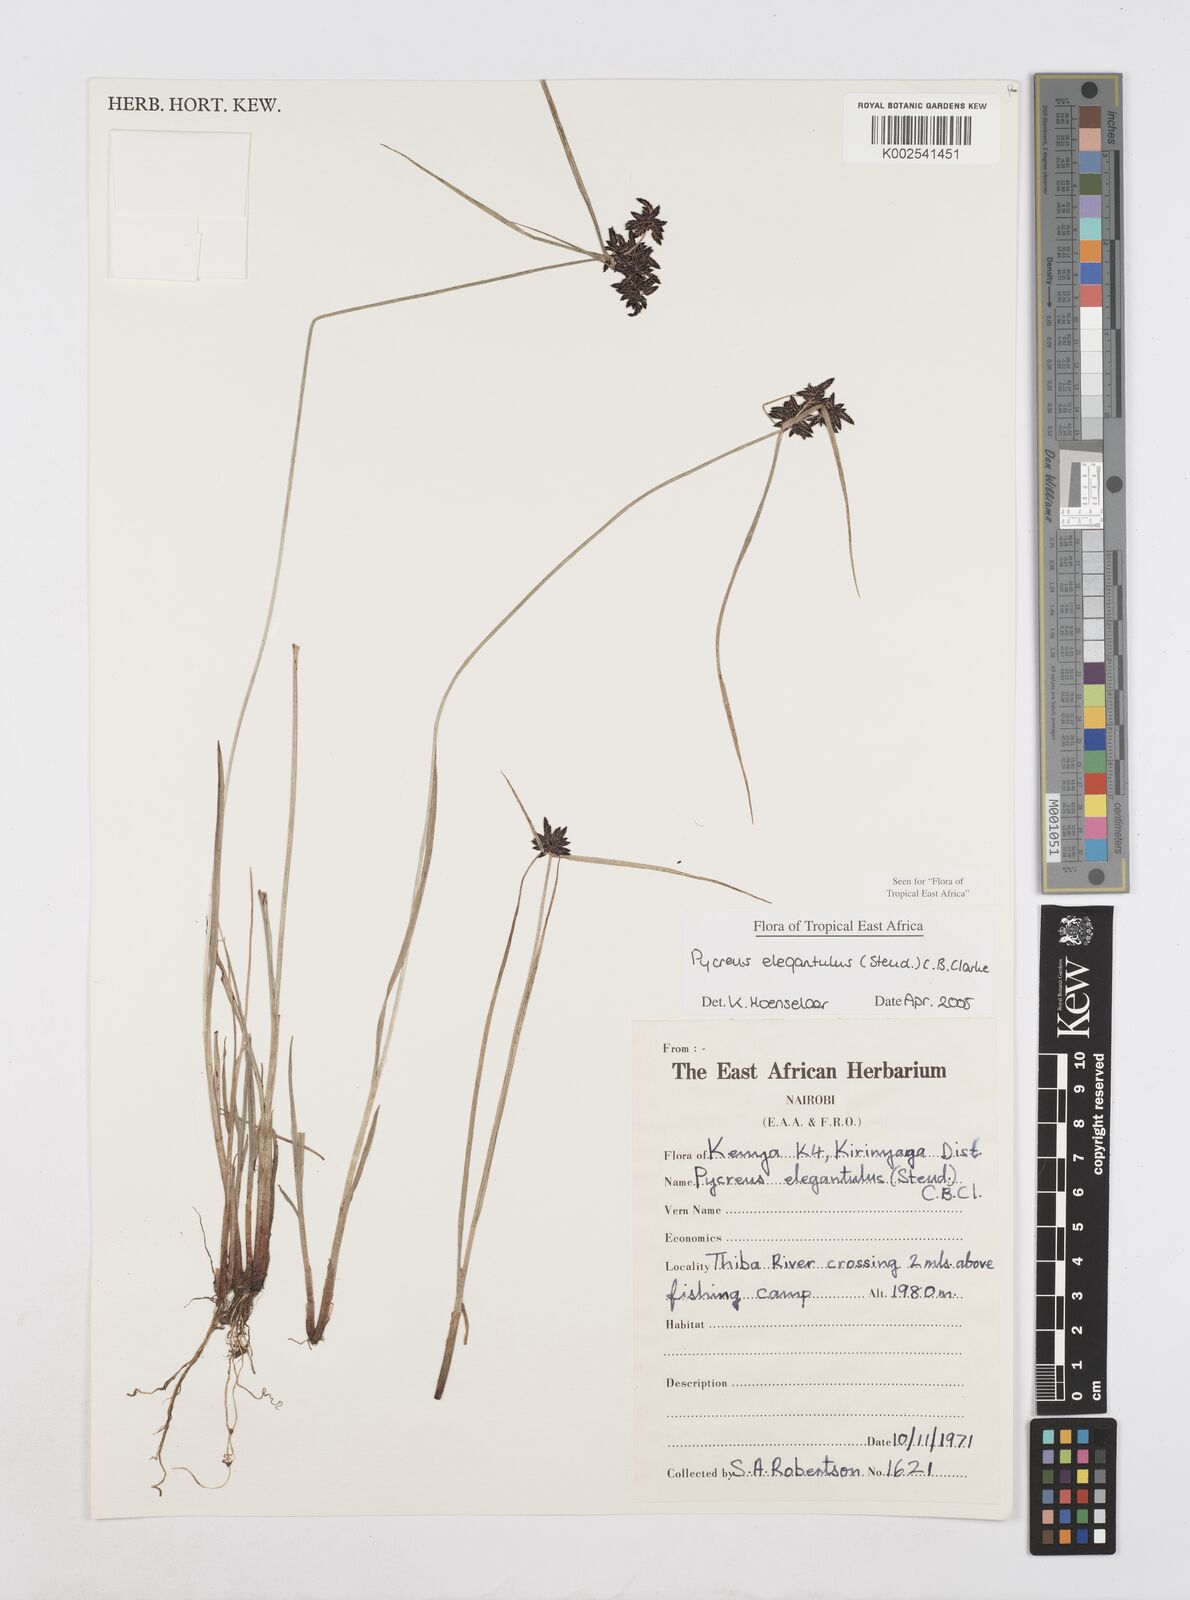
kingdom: Plantae
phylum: Tracheophyta
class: Liliopsida
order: Poales
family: Cyperaceae
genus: Cyperus
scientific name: Cyperus elegantulus
